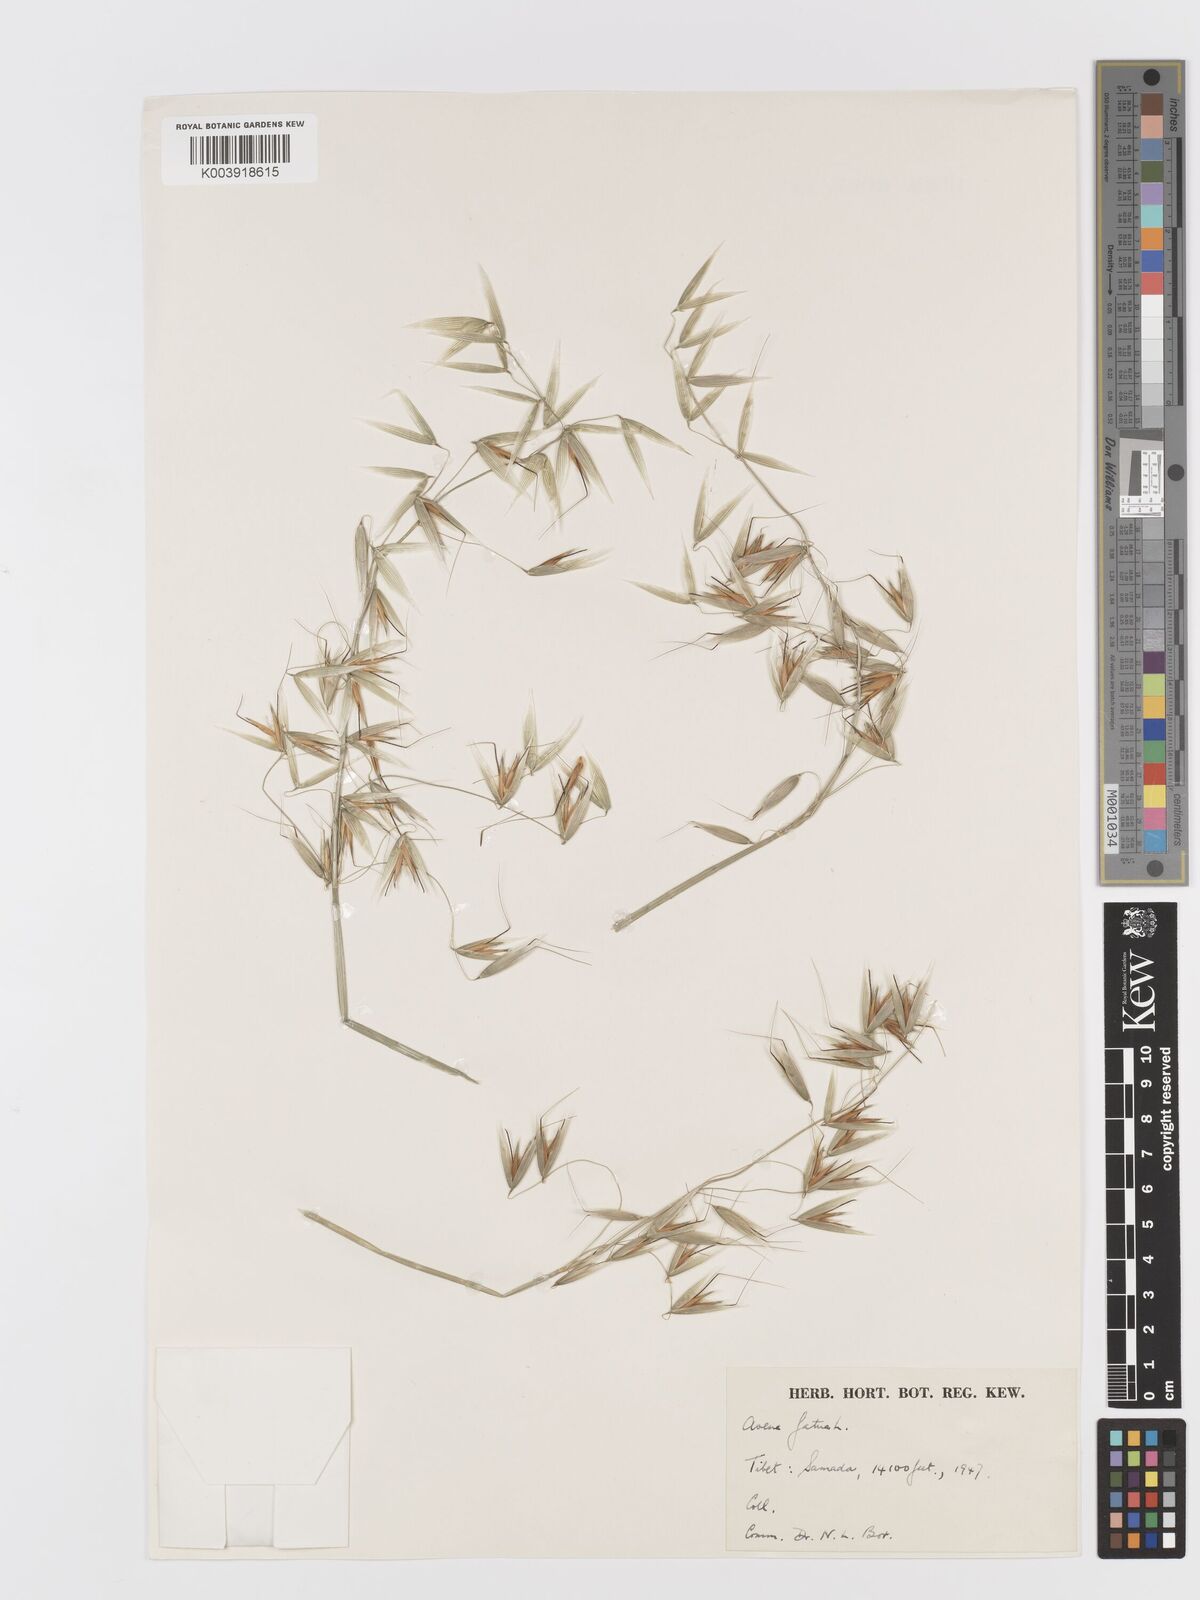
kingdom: Plantae
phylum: Tracheophyta
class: Liliopsida
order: Poales
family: Poaceae
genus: Avena
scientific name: Avena fatua
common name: Wild oat
